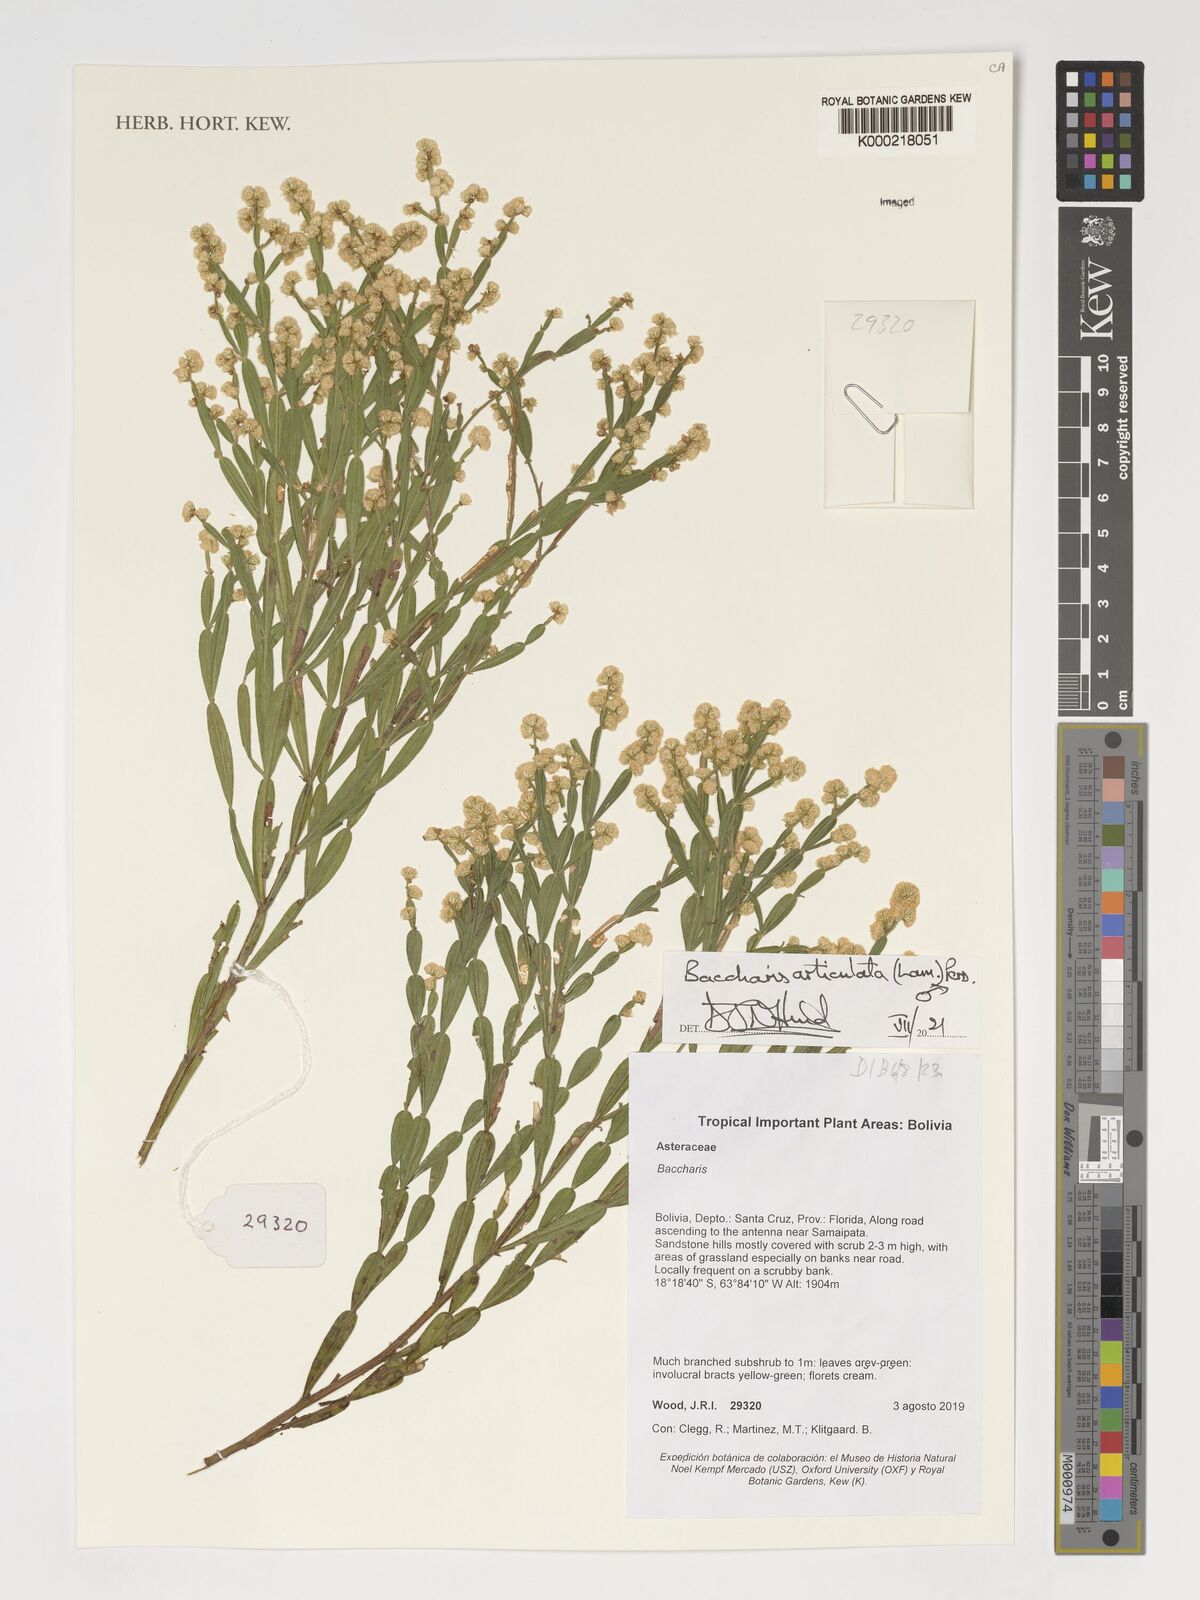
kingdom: Plantae
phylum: Tracheophyta
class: Magnoliopsida
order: Asterales
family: Asteraceae
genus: Baccharis
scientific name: Baccharis articulata
